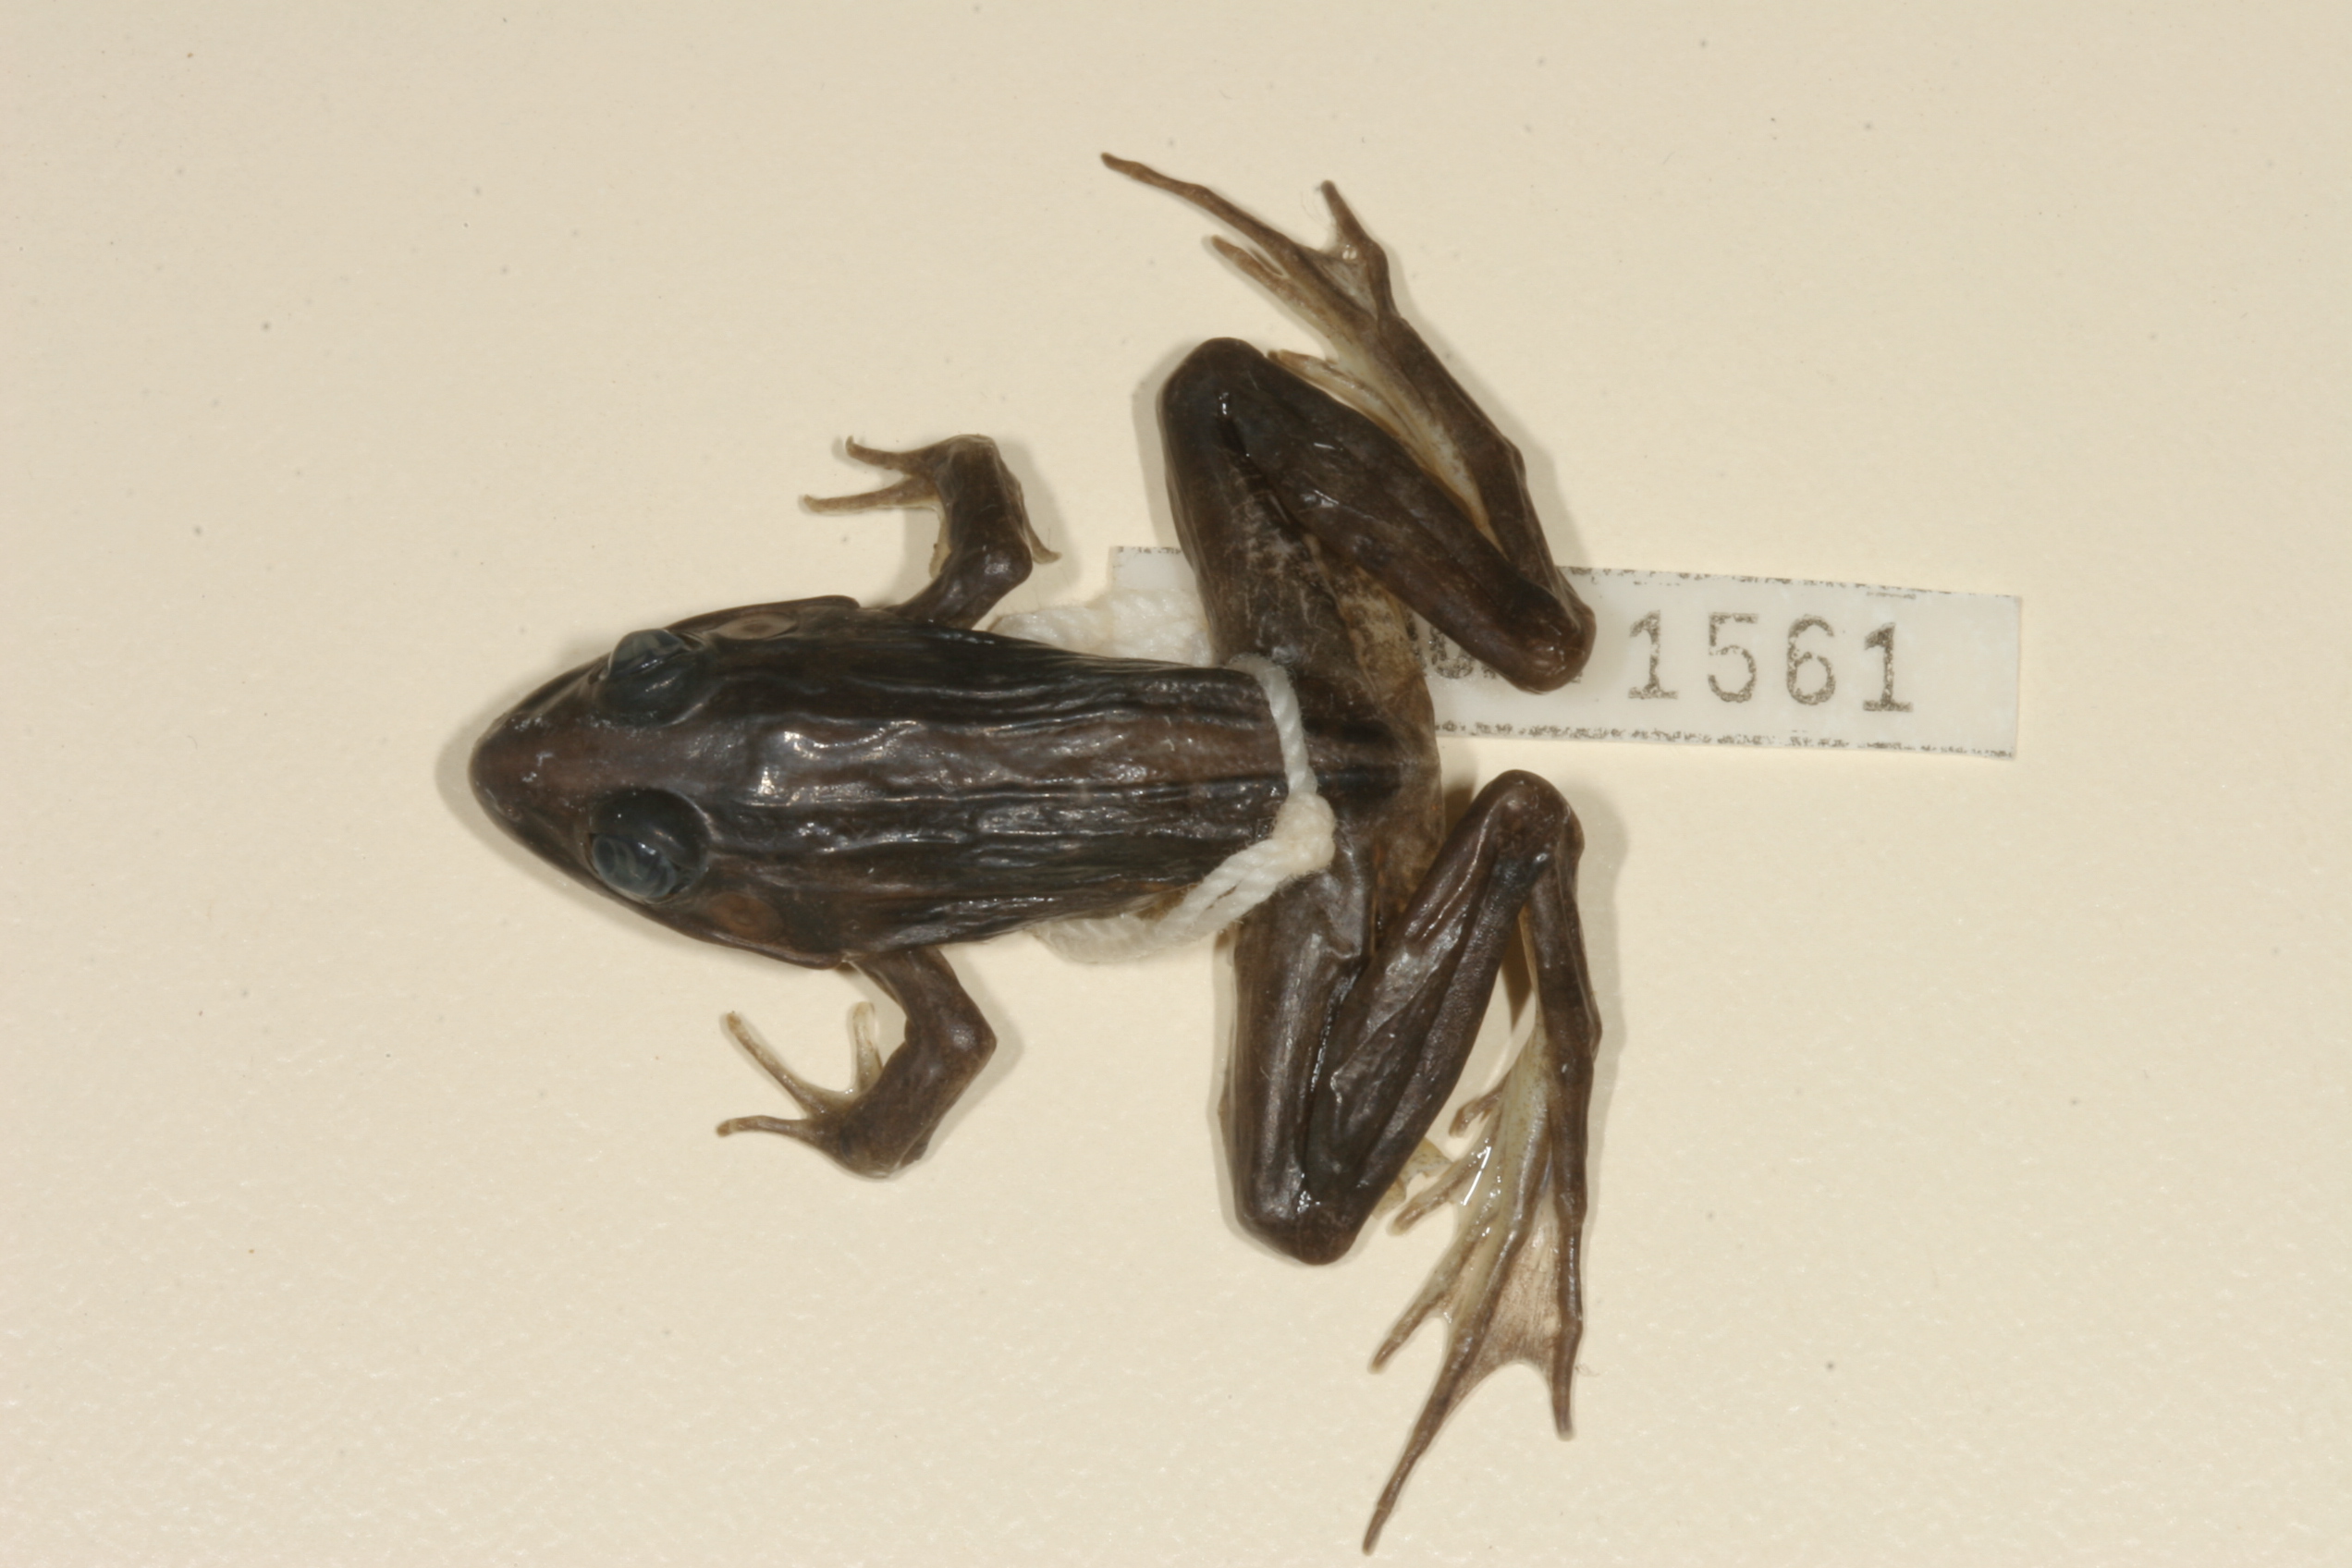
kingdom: Animalia
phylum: Chordata
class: Amphibia
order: Anura
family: Ptychadenidae
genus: Ptychadena
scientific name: Ptychadena mascareniensis
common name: Mascarene grass frog
